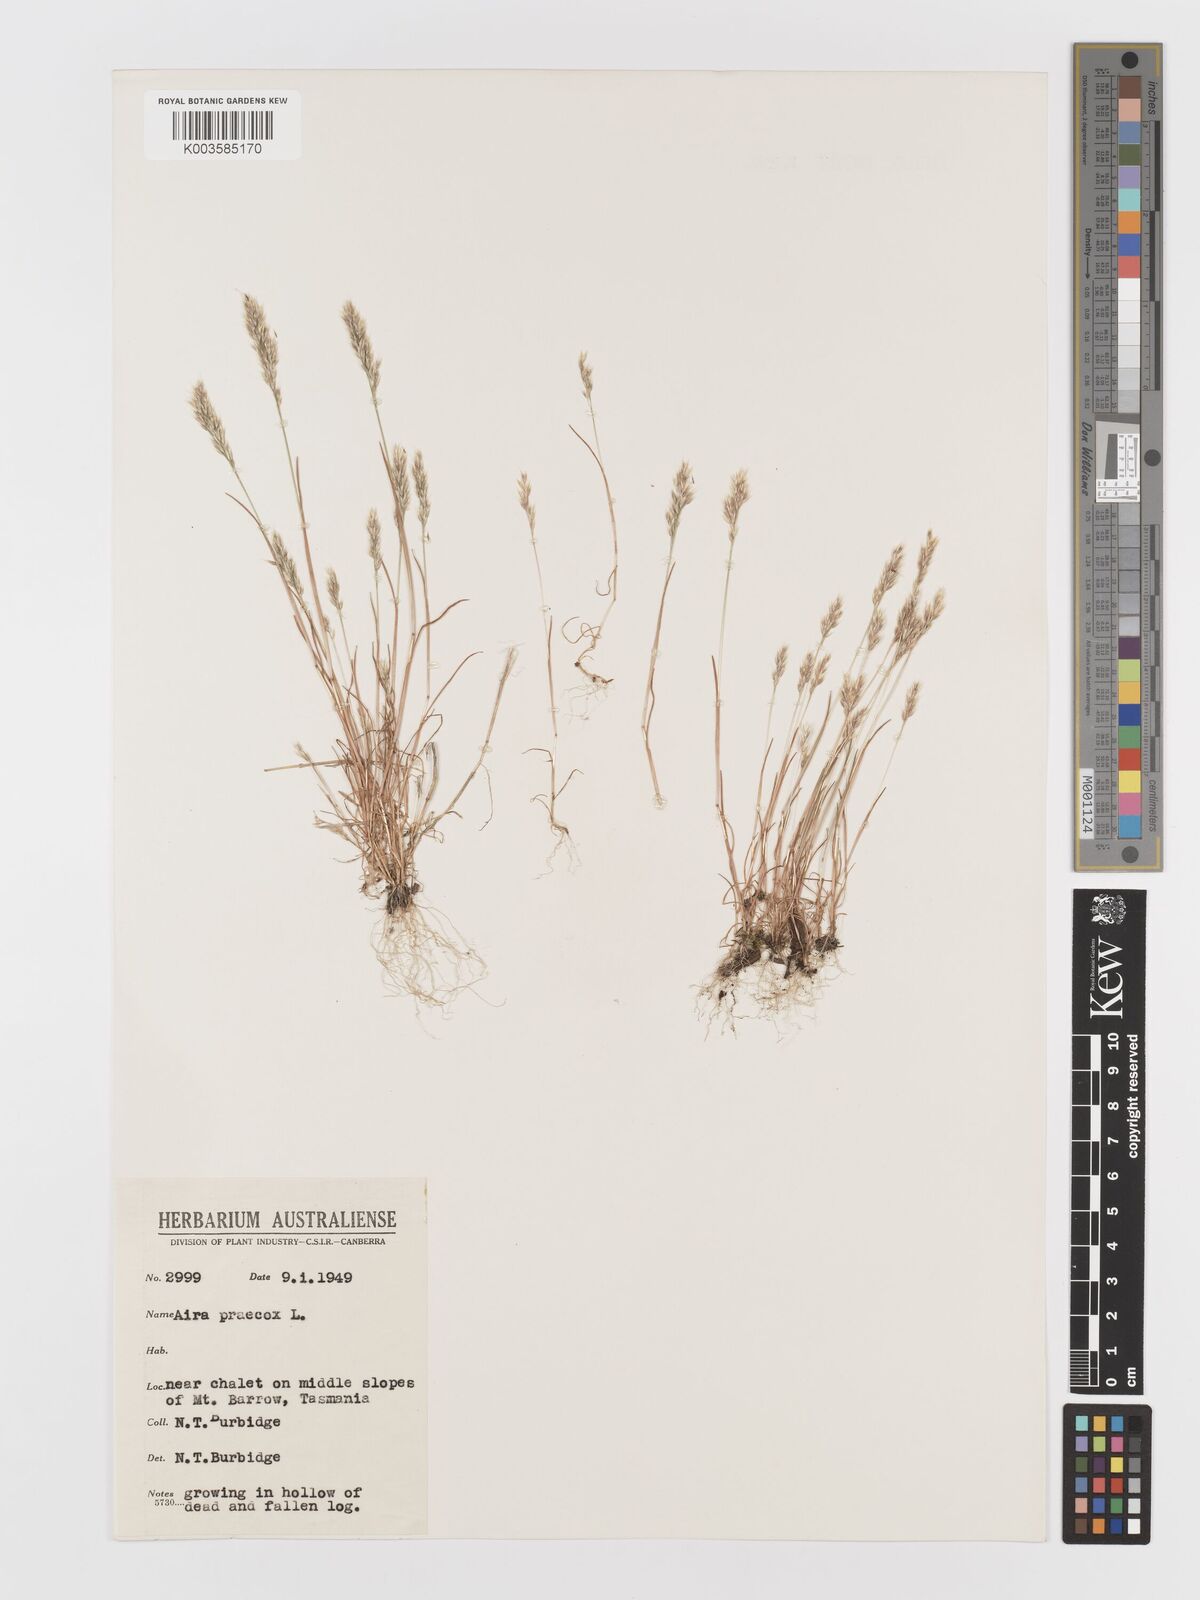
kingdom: Plantae
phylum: Tracheophyta
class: Liliopsida
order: Poales
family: Poaceae
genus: Aira
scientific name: Aira praecox
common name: Early hair-grass
